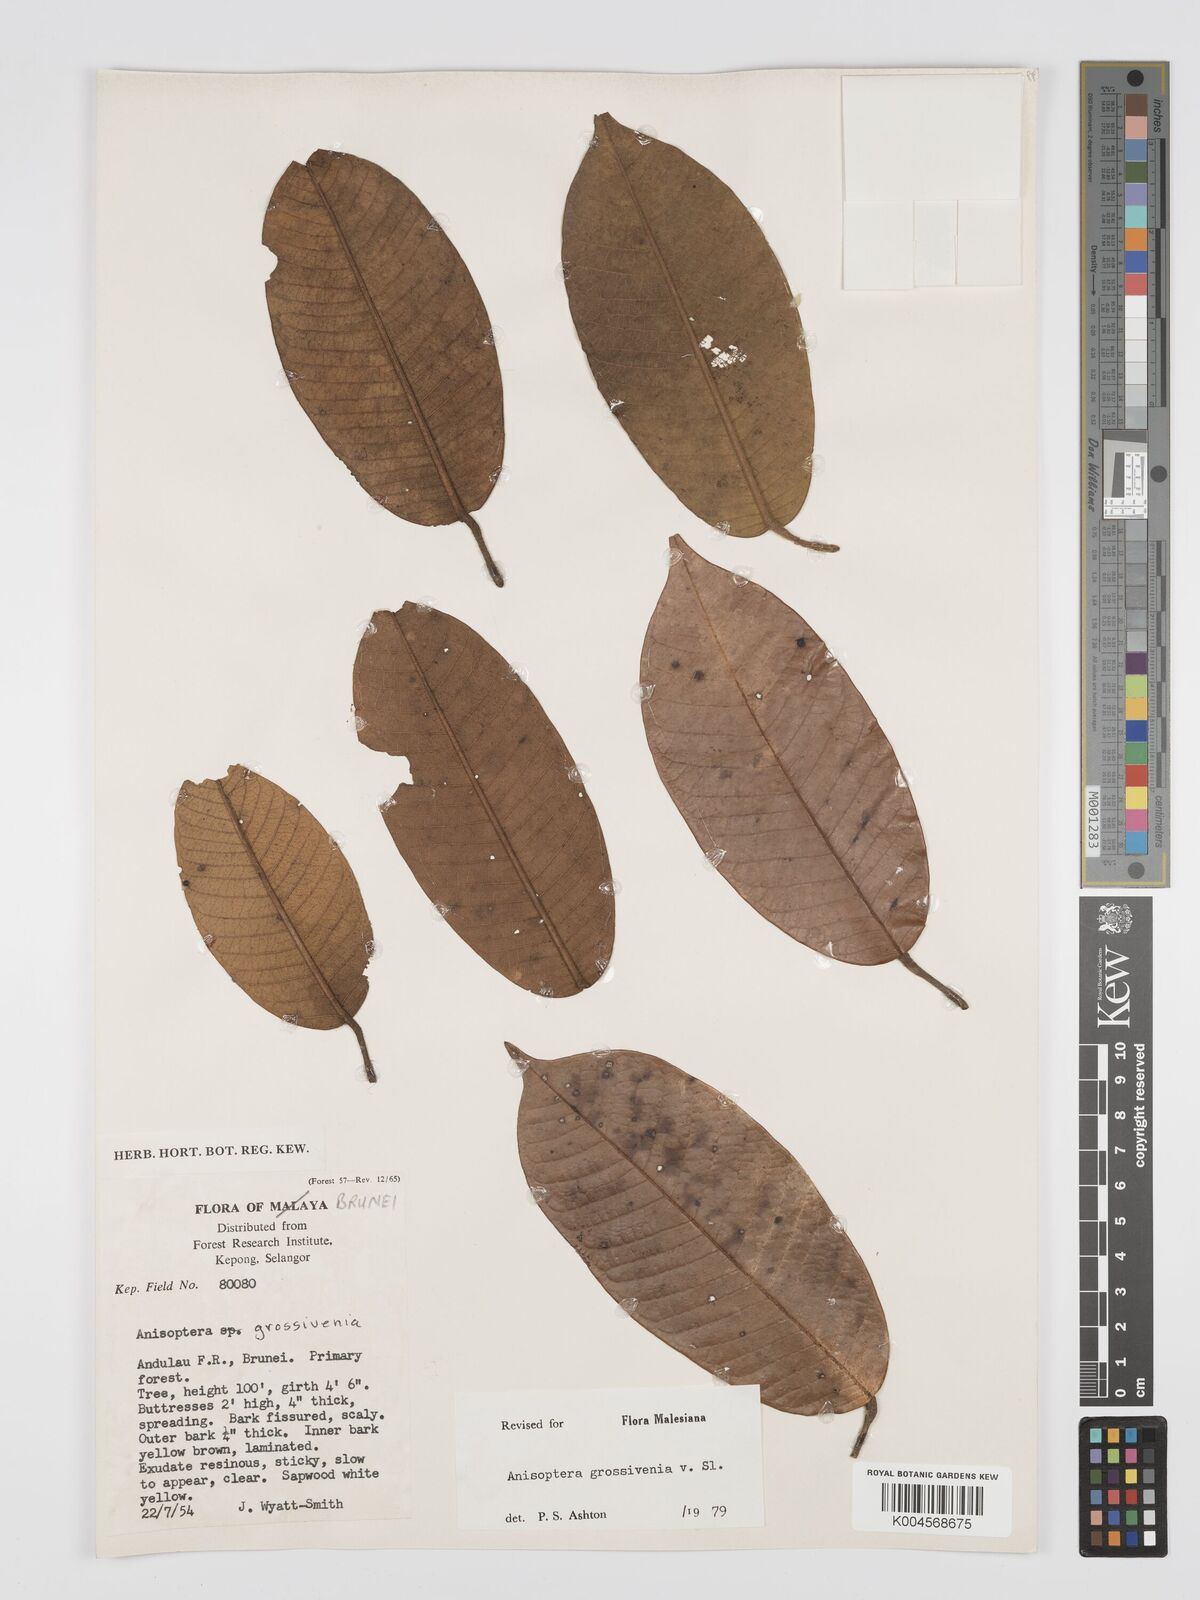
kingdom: Plantae
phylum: Tracheophyta
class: Magnoliopsida
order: Malvales
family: Dipterocarpaceae
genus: Anisoptera
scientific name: Anisoptera grossivenia
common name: Krabak
